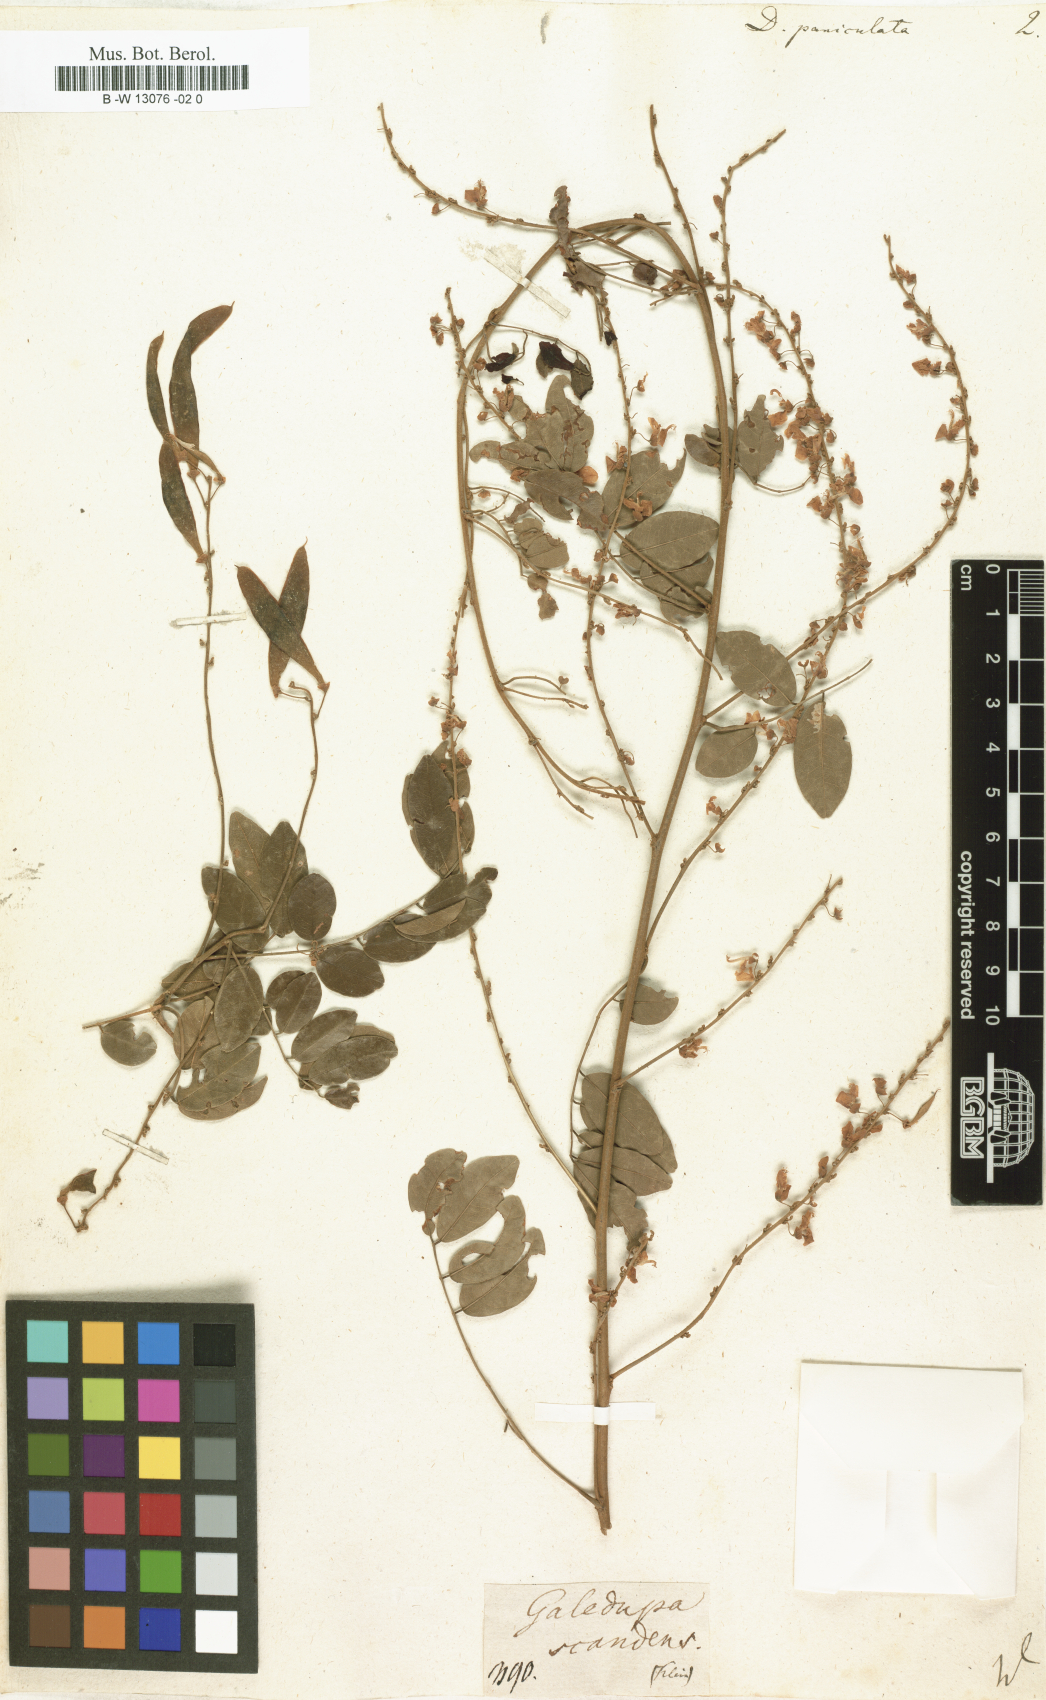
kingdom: Plantae
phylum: Tracheophyta
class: Magnoliopsida
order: Fabales
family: Fabaceae
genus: Dalbergia
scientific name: Dalbergia paniculata
